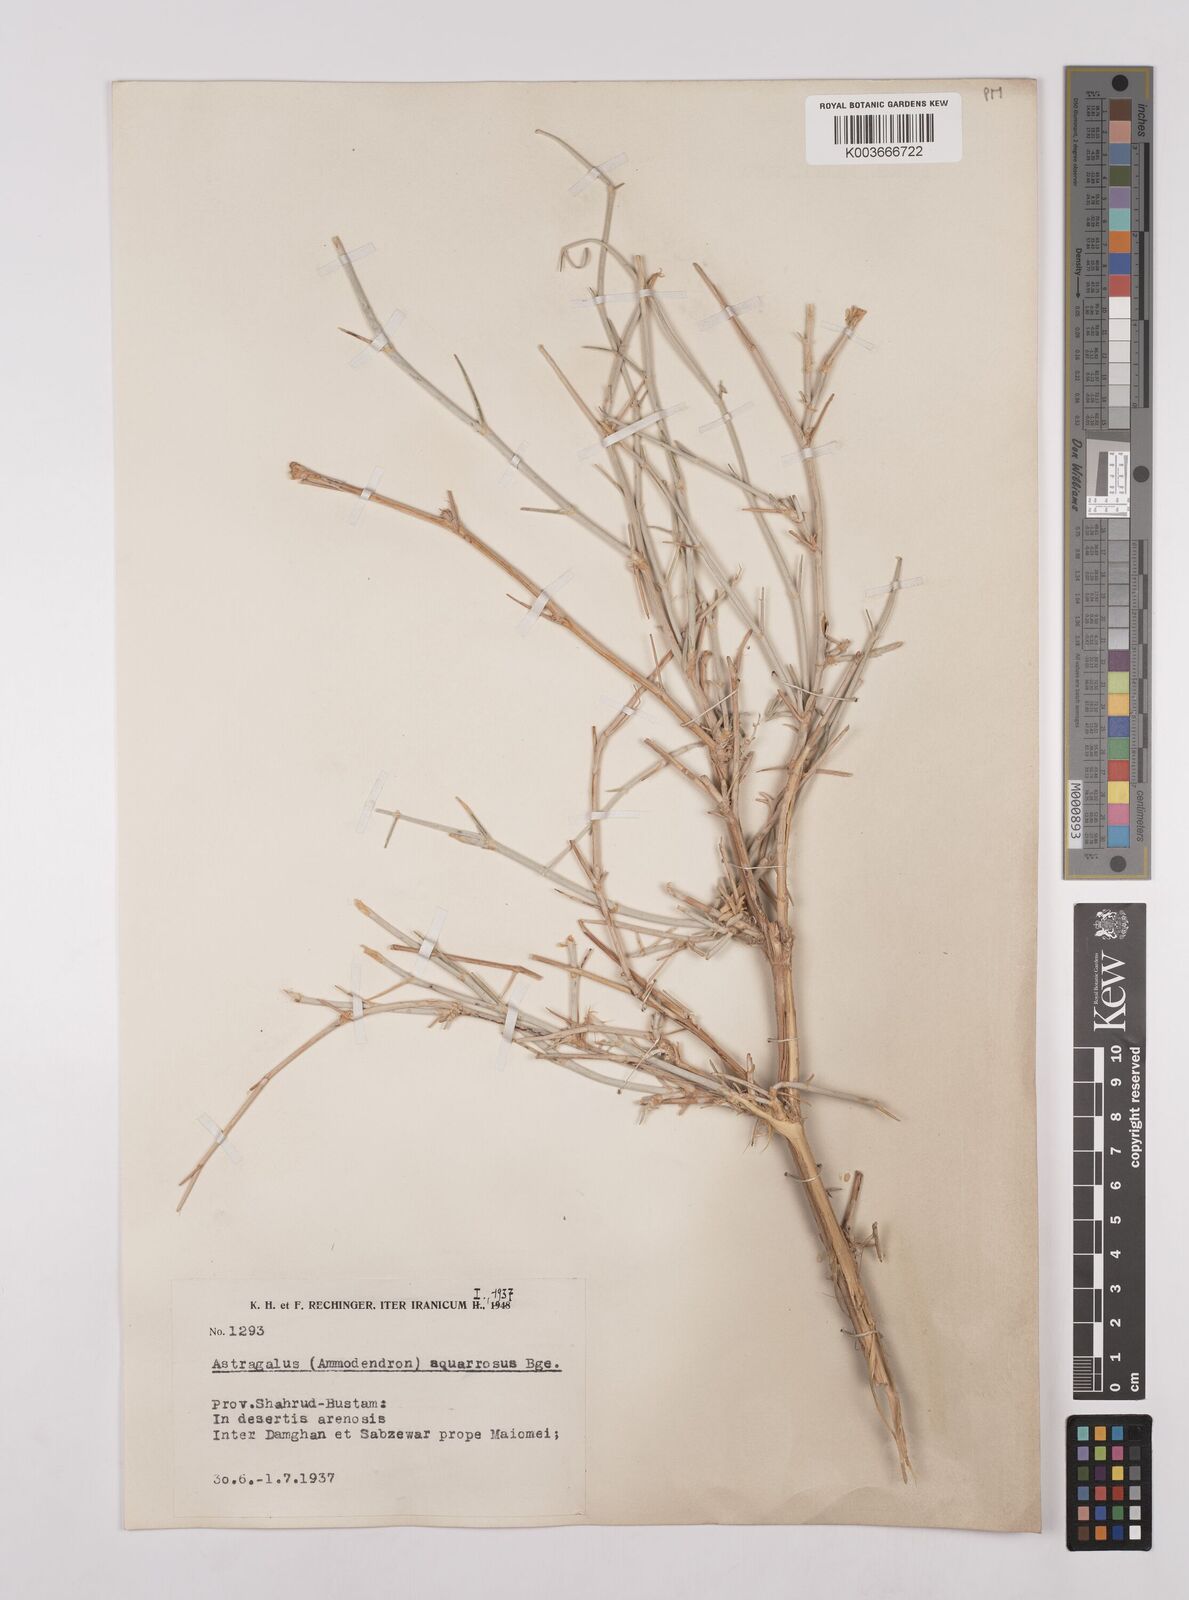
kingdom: Plantae
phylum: Tracheophyta
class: Magnoliopsida
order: Fabales
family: Fabaceae
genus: Astragalus
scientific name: Astragalus squarrosus
